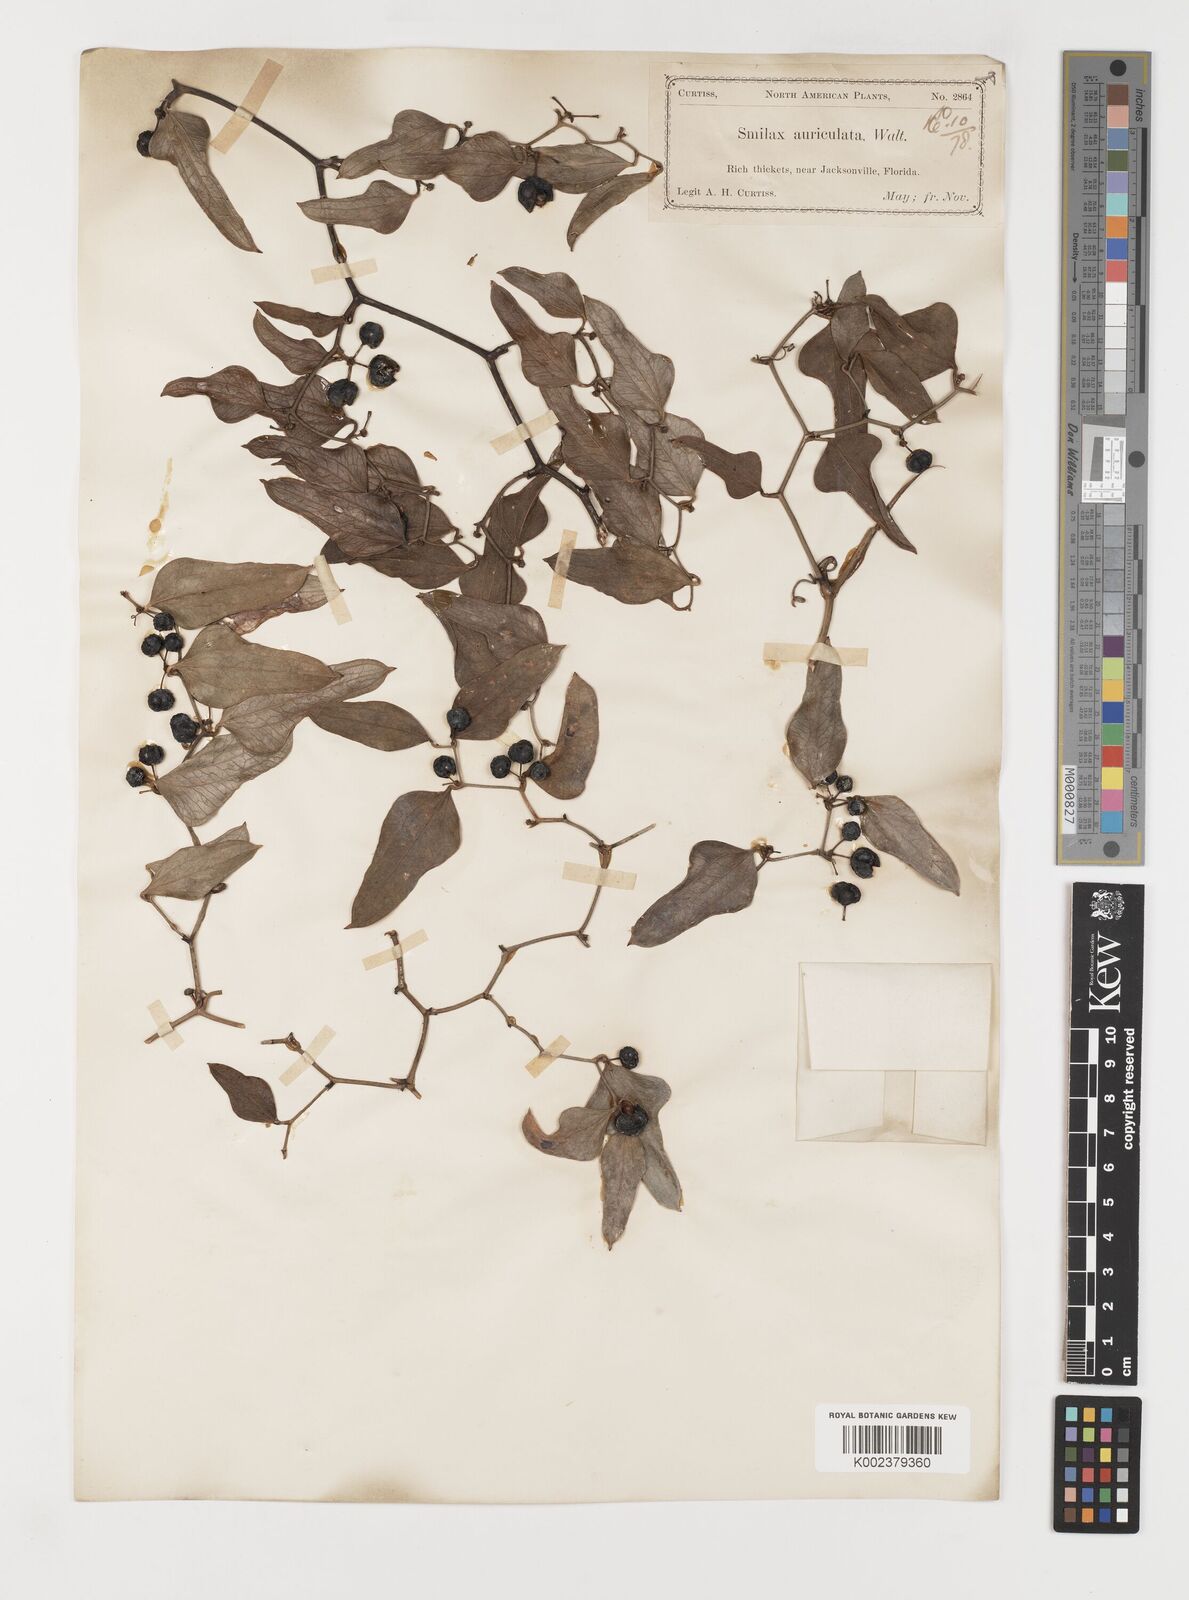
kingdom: Plantae
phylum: Tracheophyta
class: Liliopsida
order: Liliales
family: Smilacaceae
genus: Smilax
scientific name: Smilax auriculata
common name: Wild bamboo
